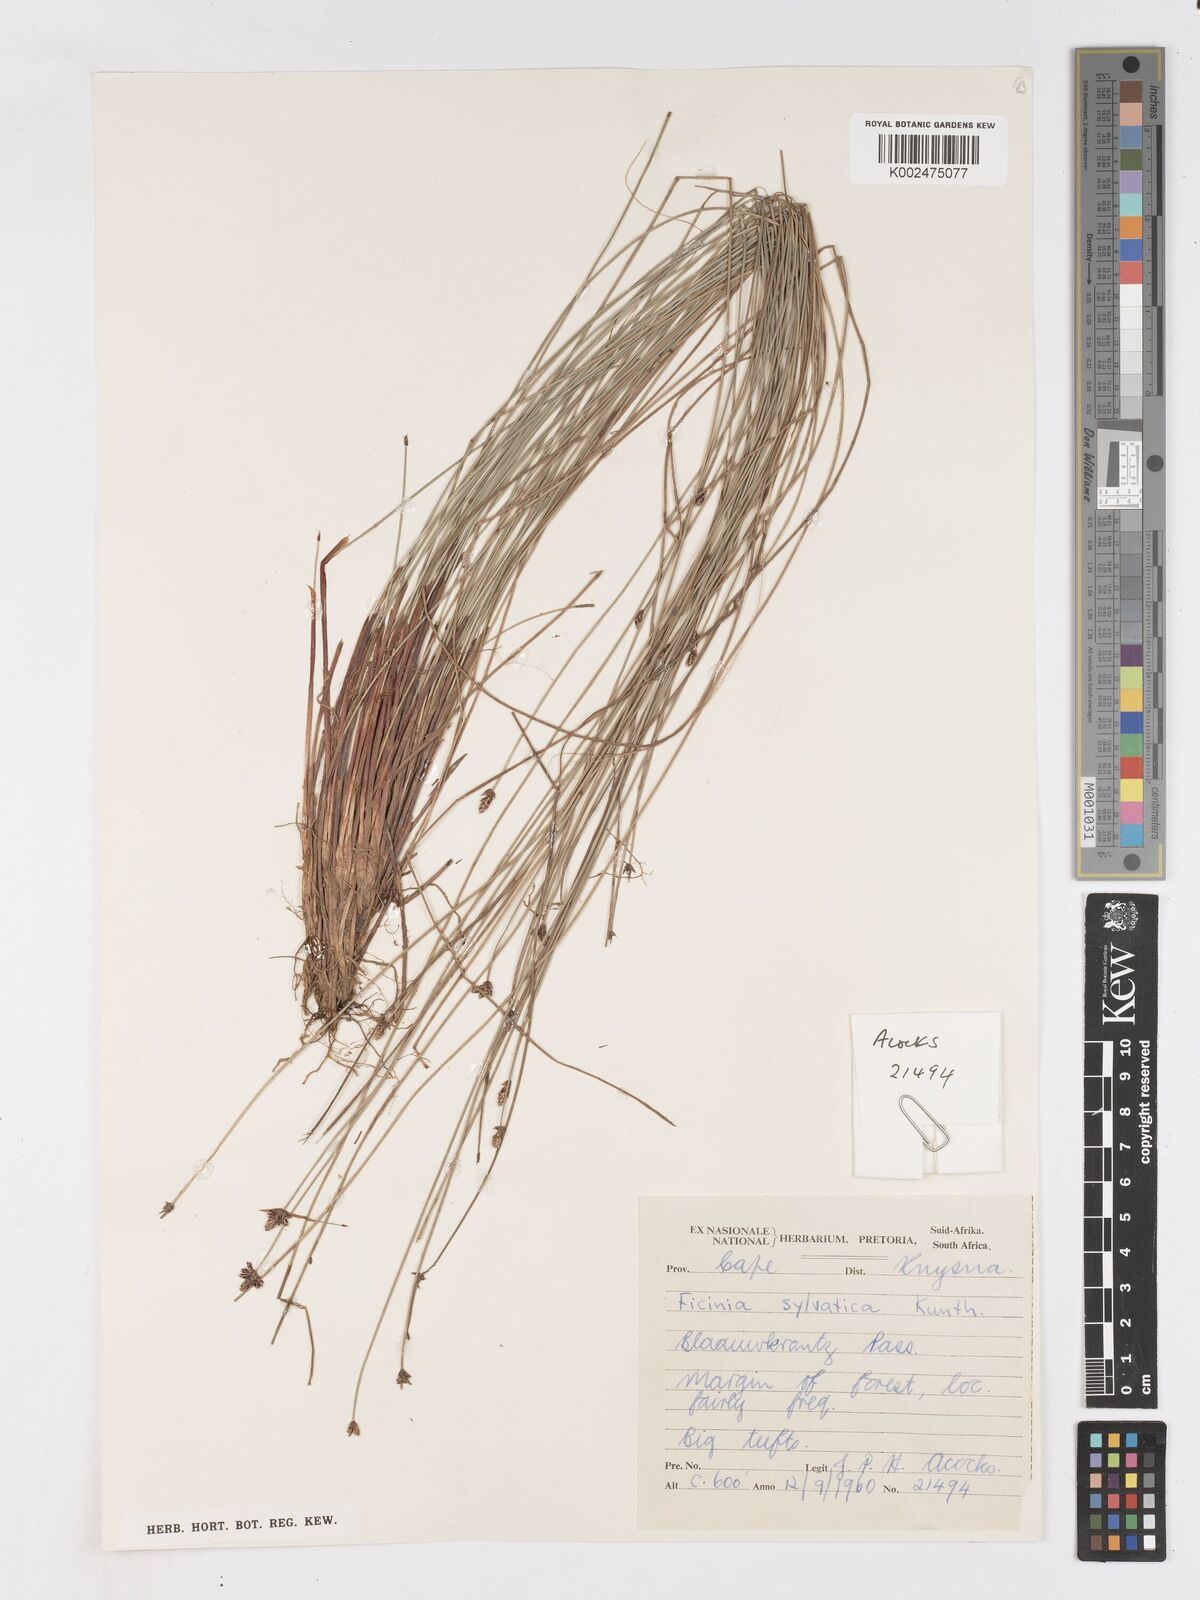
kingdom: Plantae
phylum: Tracheophyta
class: Liliopsida
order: Poales
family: Cyperaceae
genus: Ficinia
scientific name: Ficinia sylvatica
